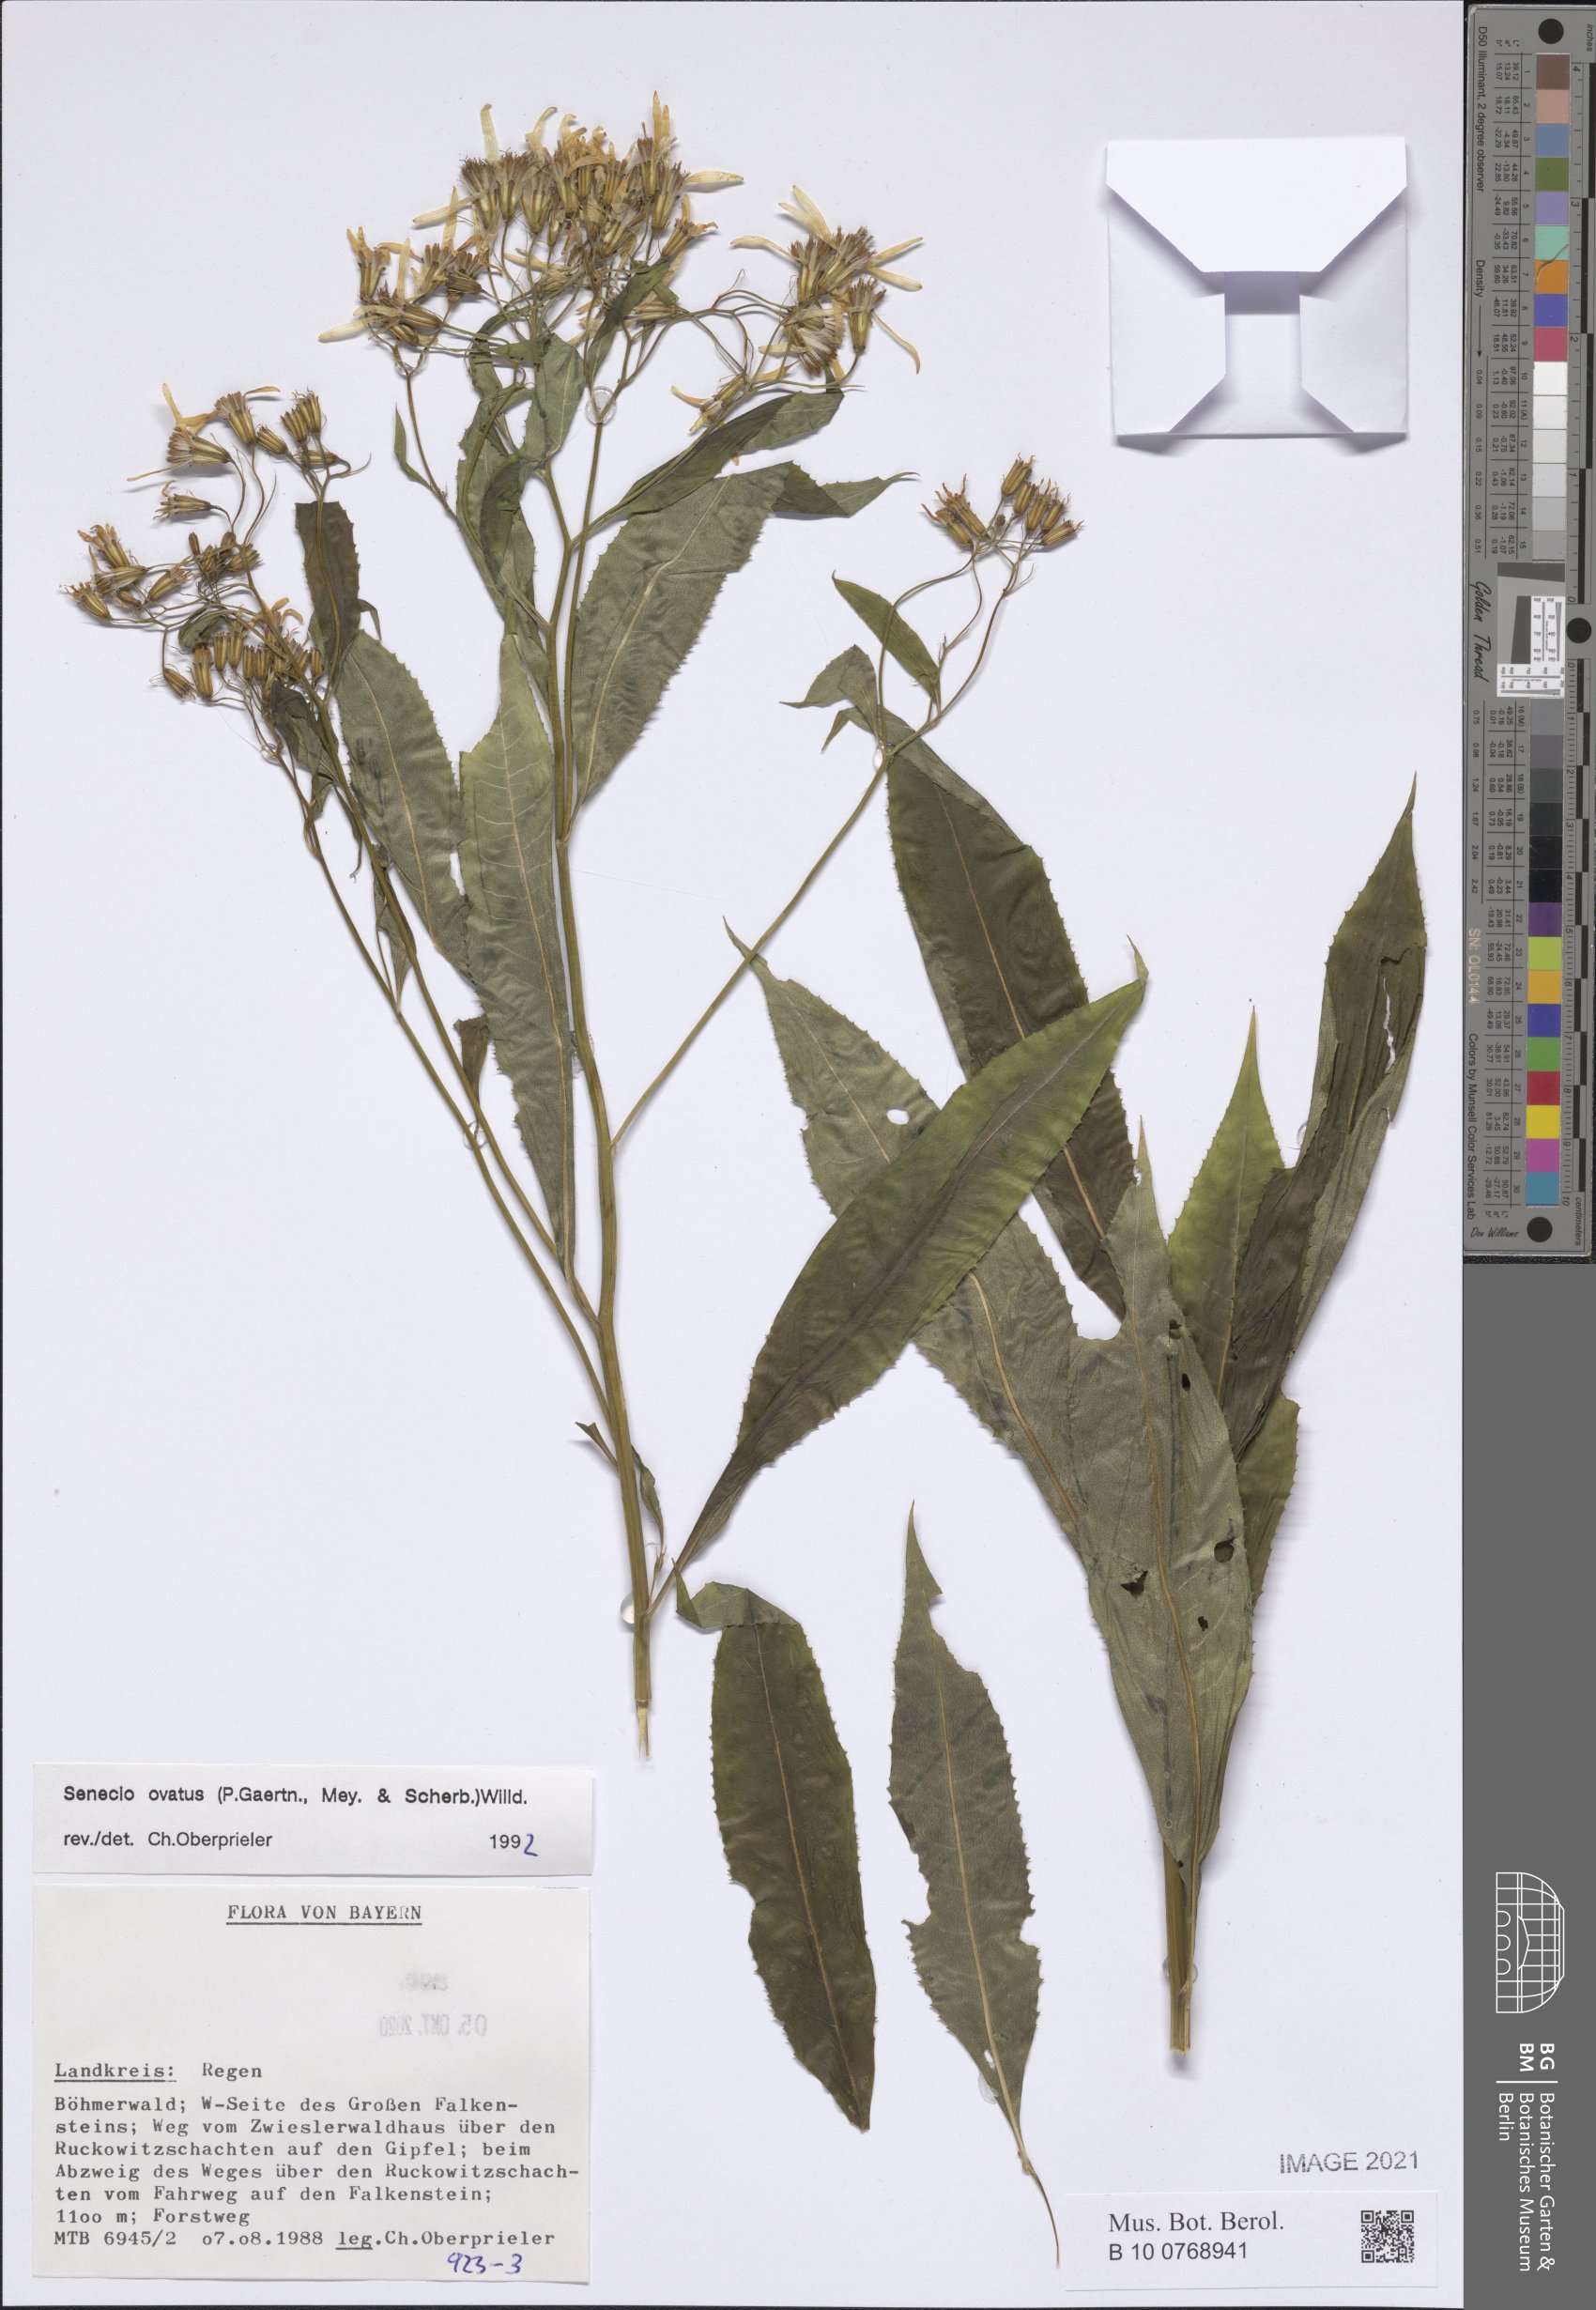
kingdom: Plantae
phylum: Tracheophyta
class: Magnoliopsida
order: Asterales
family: Asteraceae
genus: Senecio
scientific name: Senecio ovatus
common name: Wood ragwort
